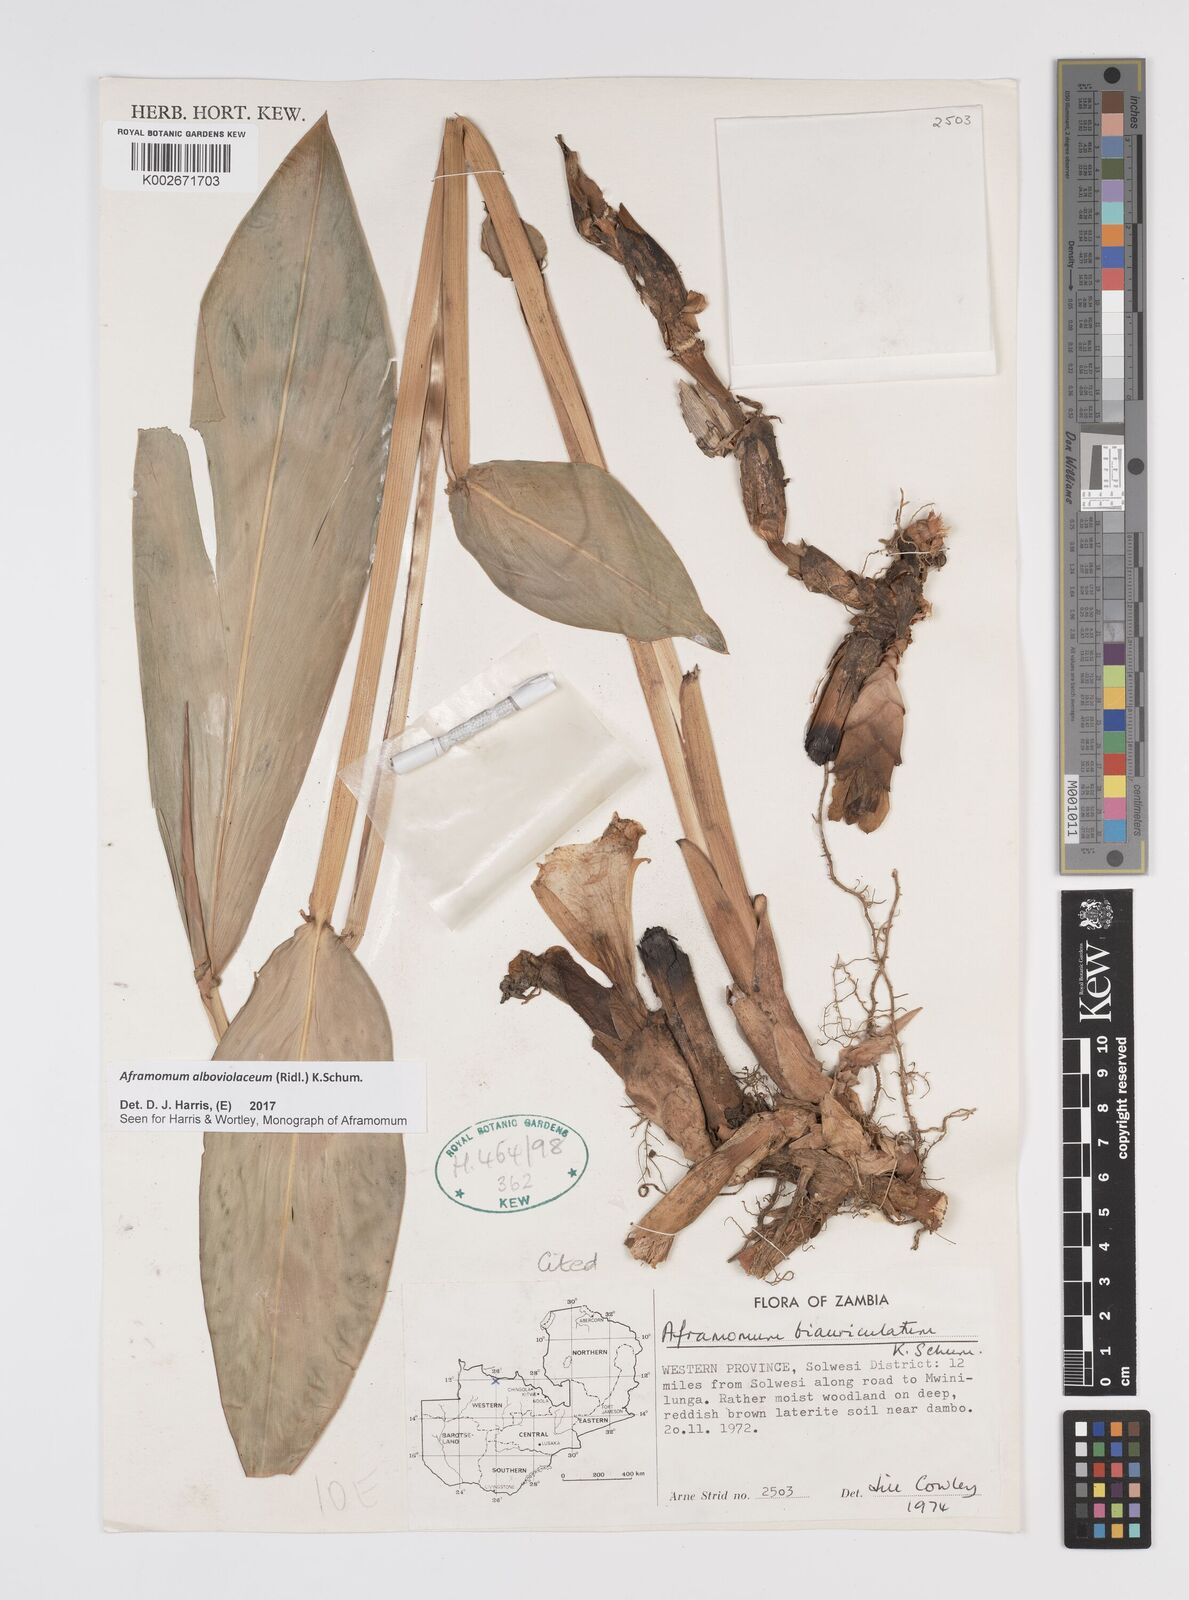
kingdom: Plantae
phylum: Tracheophyta
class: Liliopsida
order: Zingiberales
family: Zingiberaceae
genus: Aframomum
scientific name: Aframomum alboviolaceum
